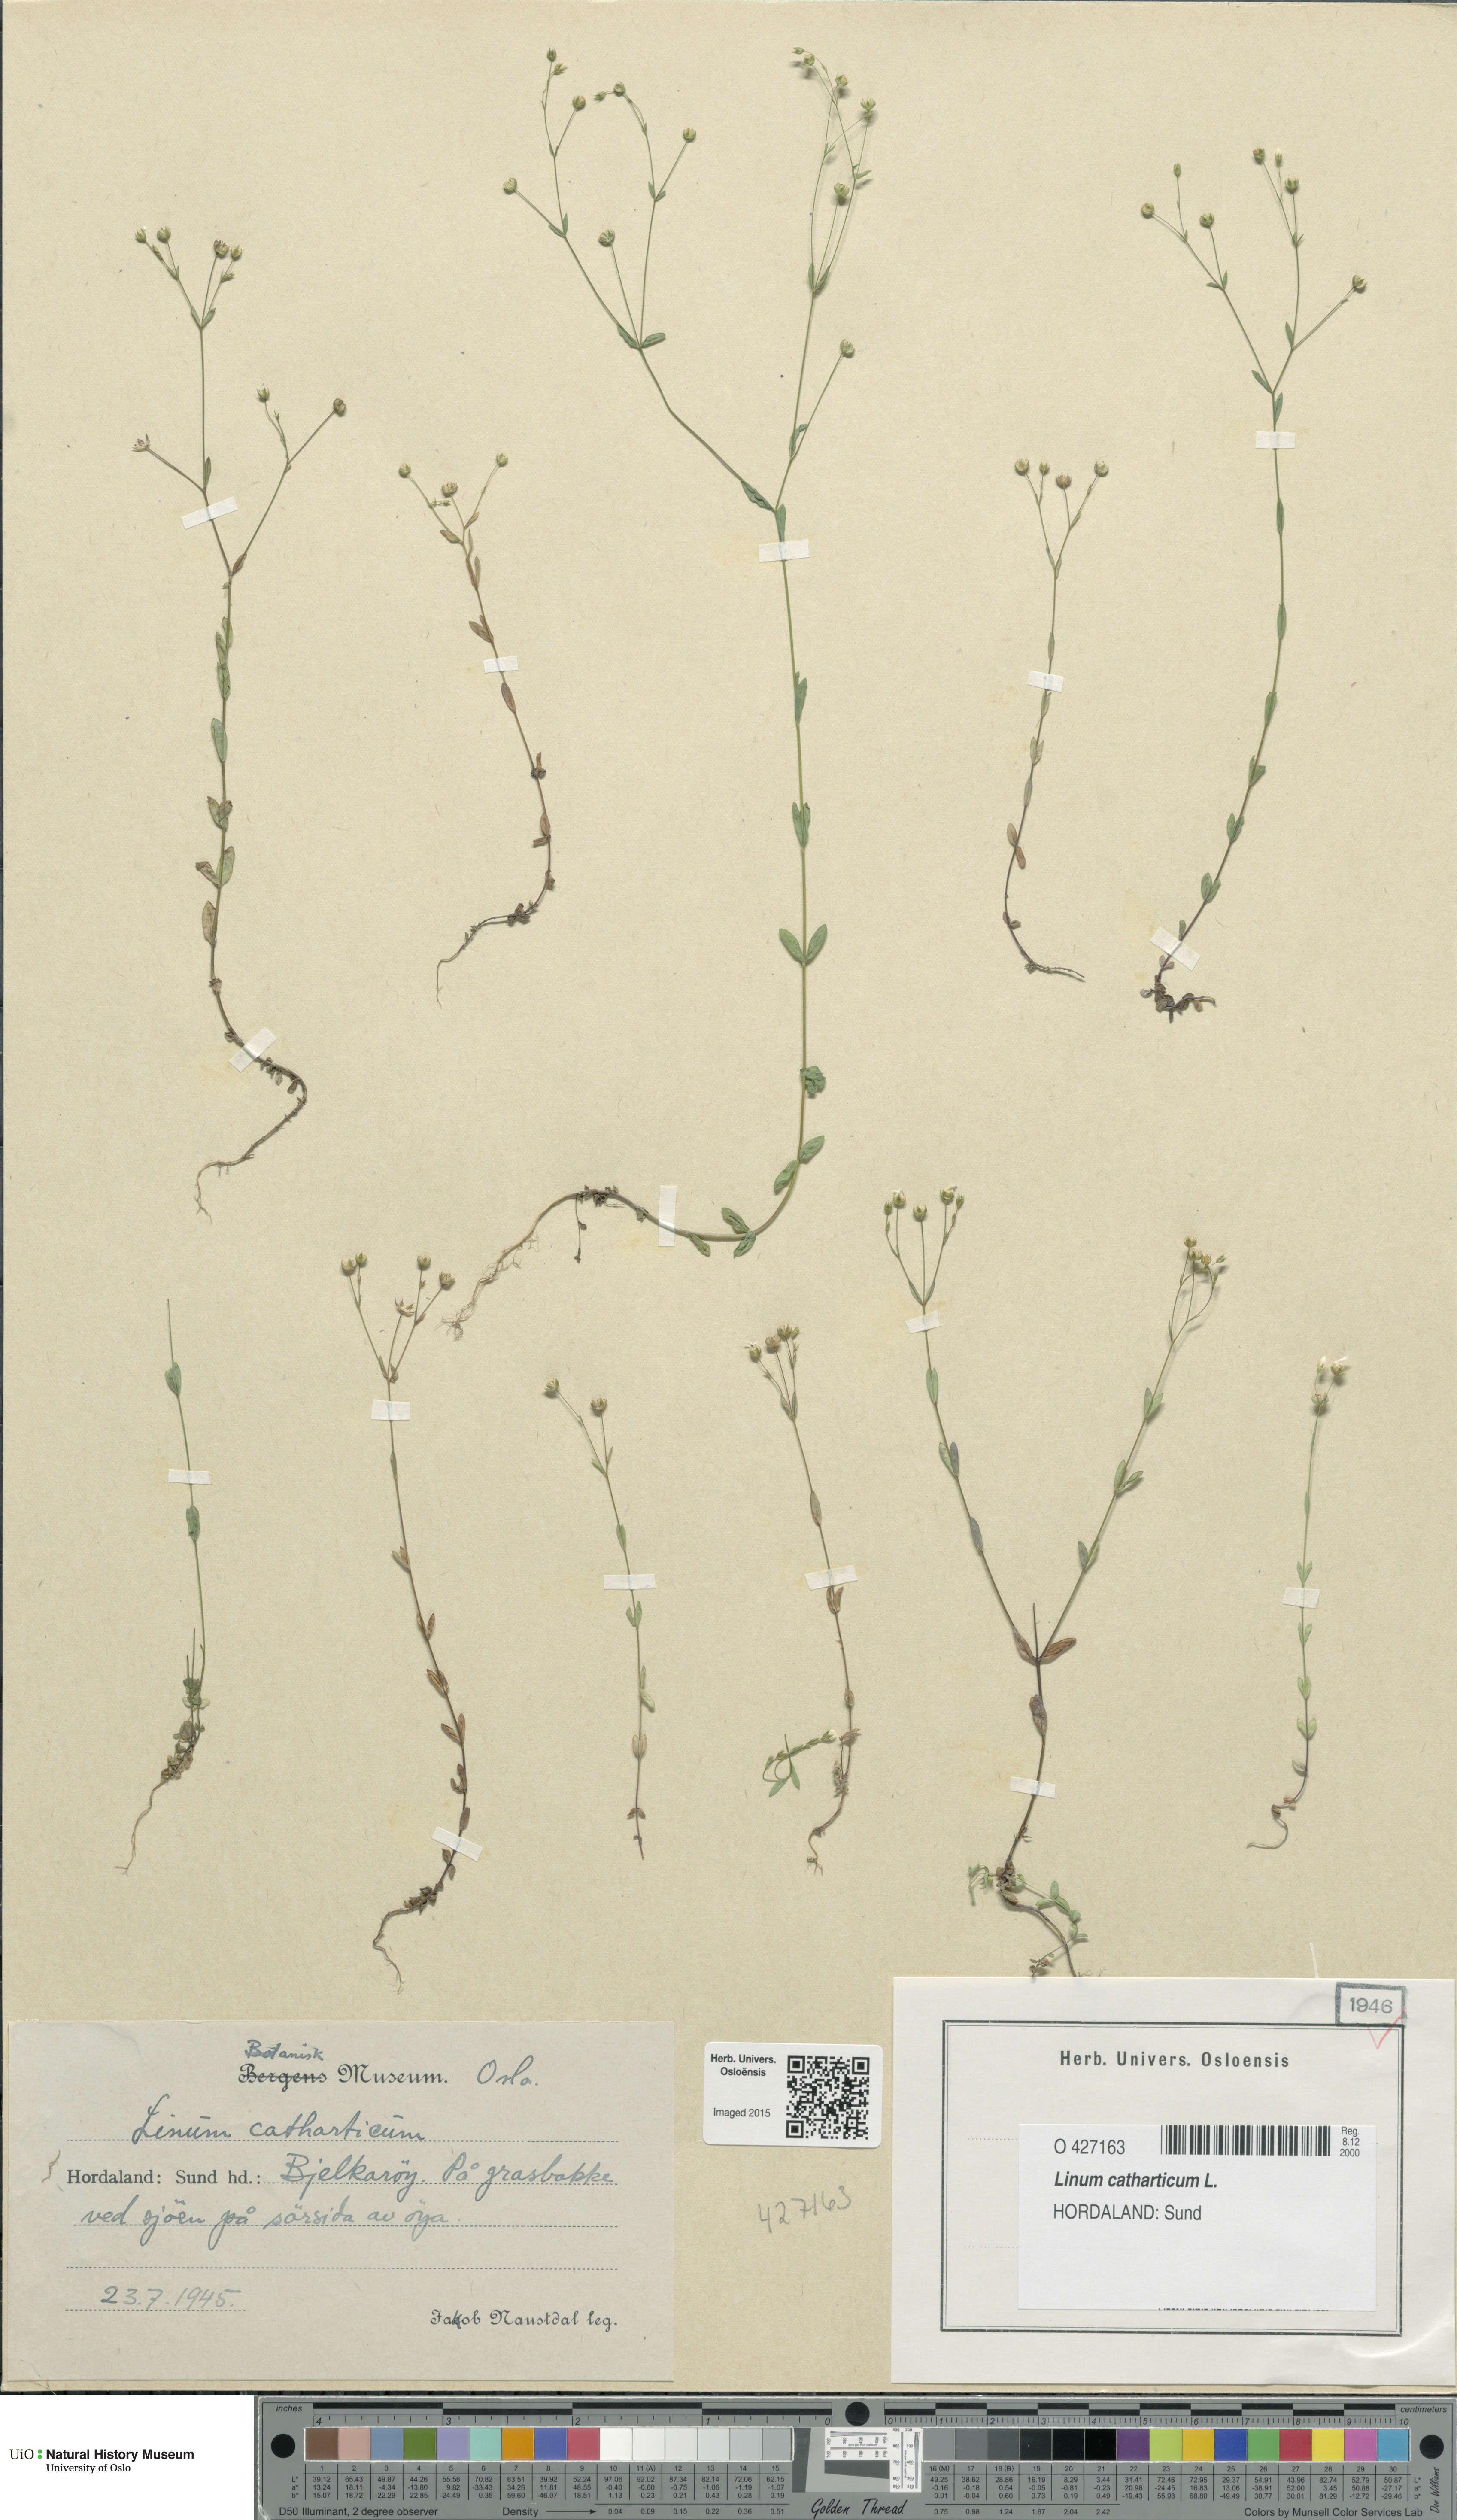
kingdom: Plantae
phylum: Tracheophyta
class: Magnoliopsida
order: Malpighiales
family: Linaceae
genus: Linum
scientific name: Linum catharticum
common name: Fairy flax
